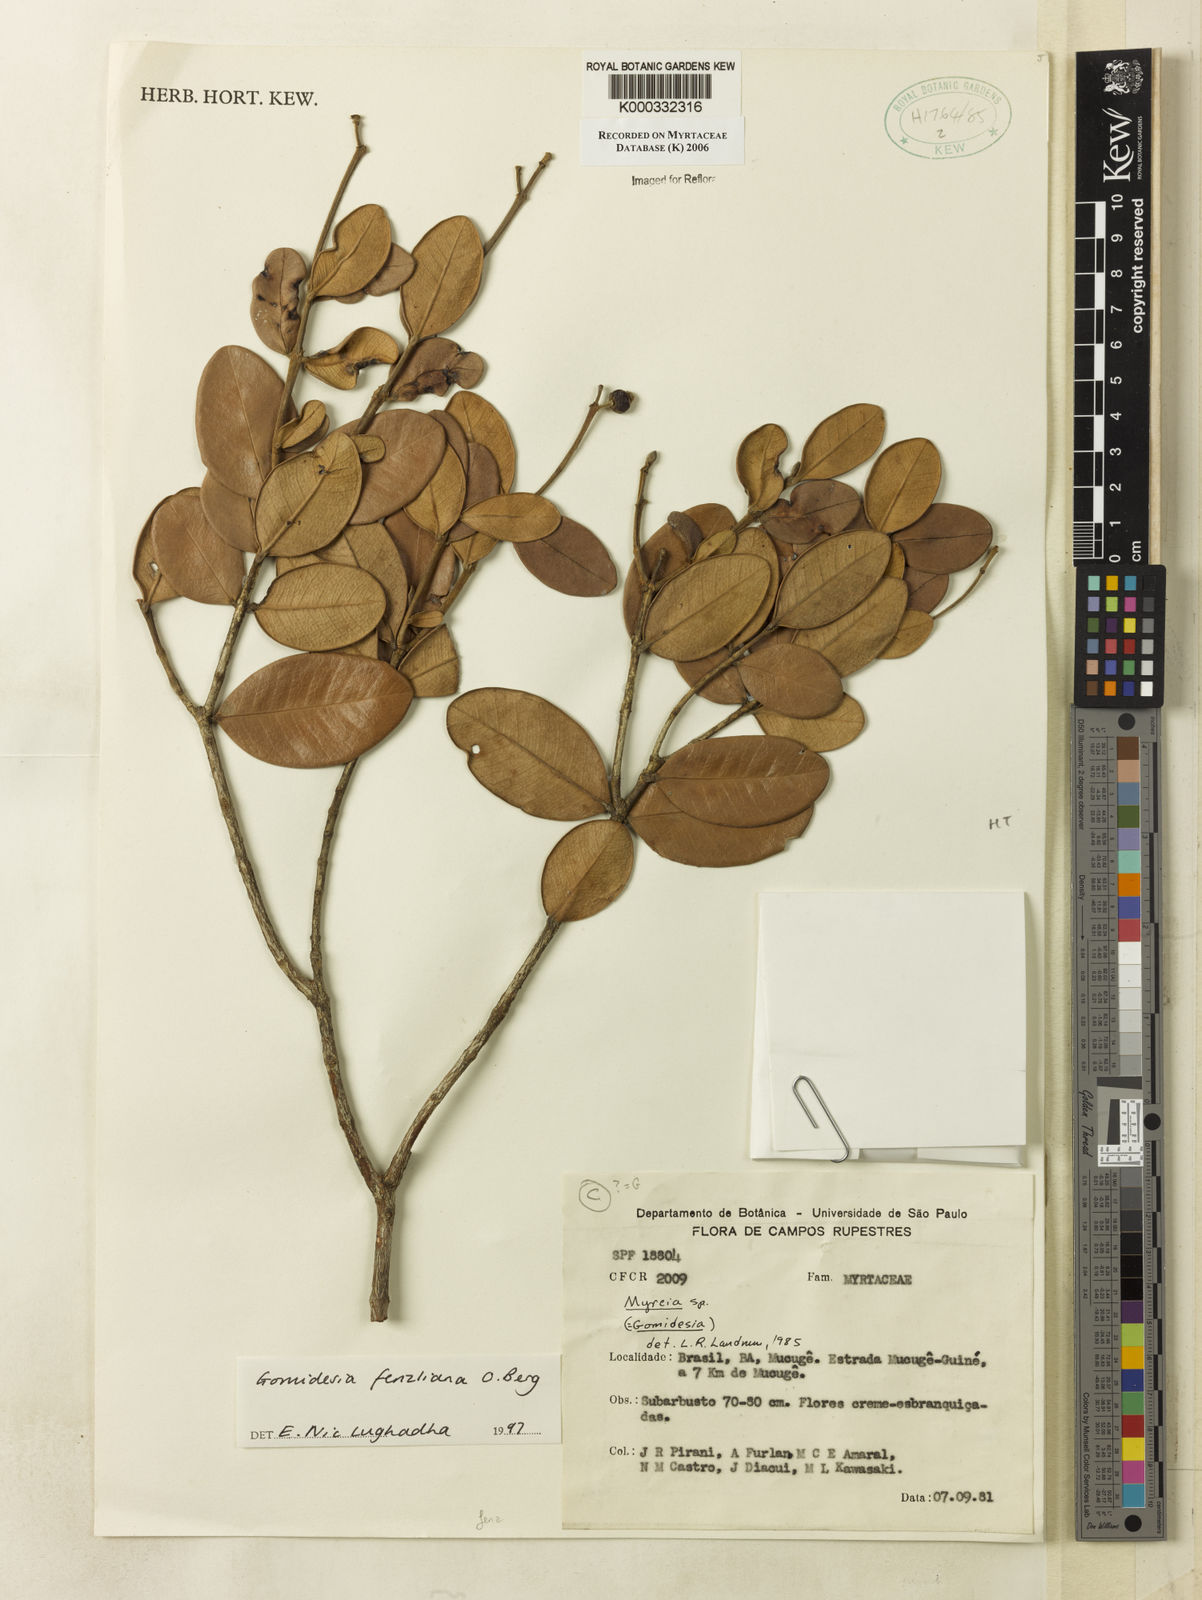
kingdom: Plantae
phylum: Tracheophyta
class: Magnoliopsida
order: Myrtales
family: Myrtaceae
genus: Myrcia
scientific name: Myrcia ilheosensis
